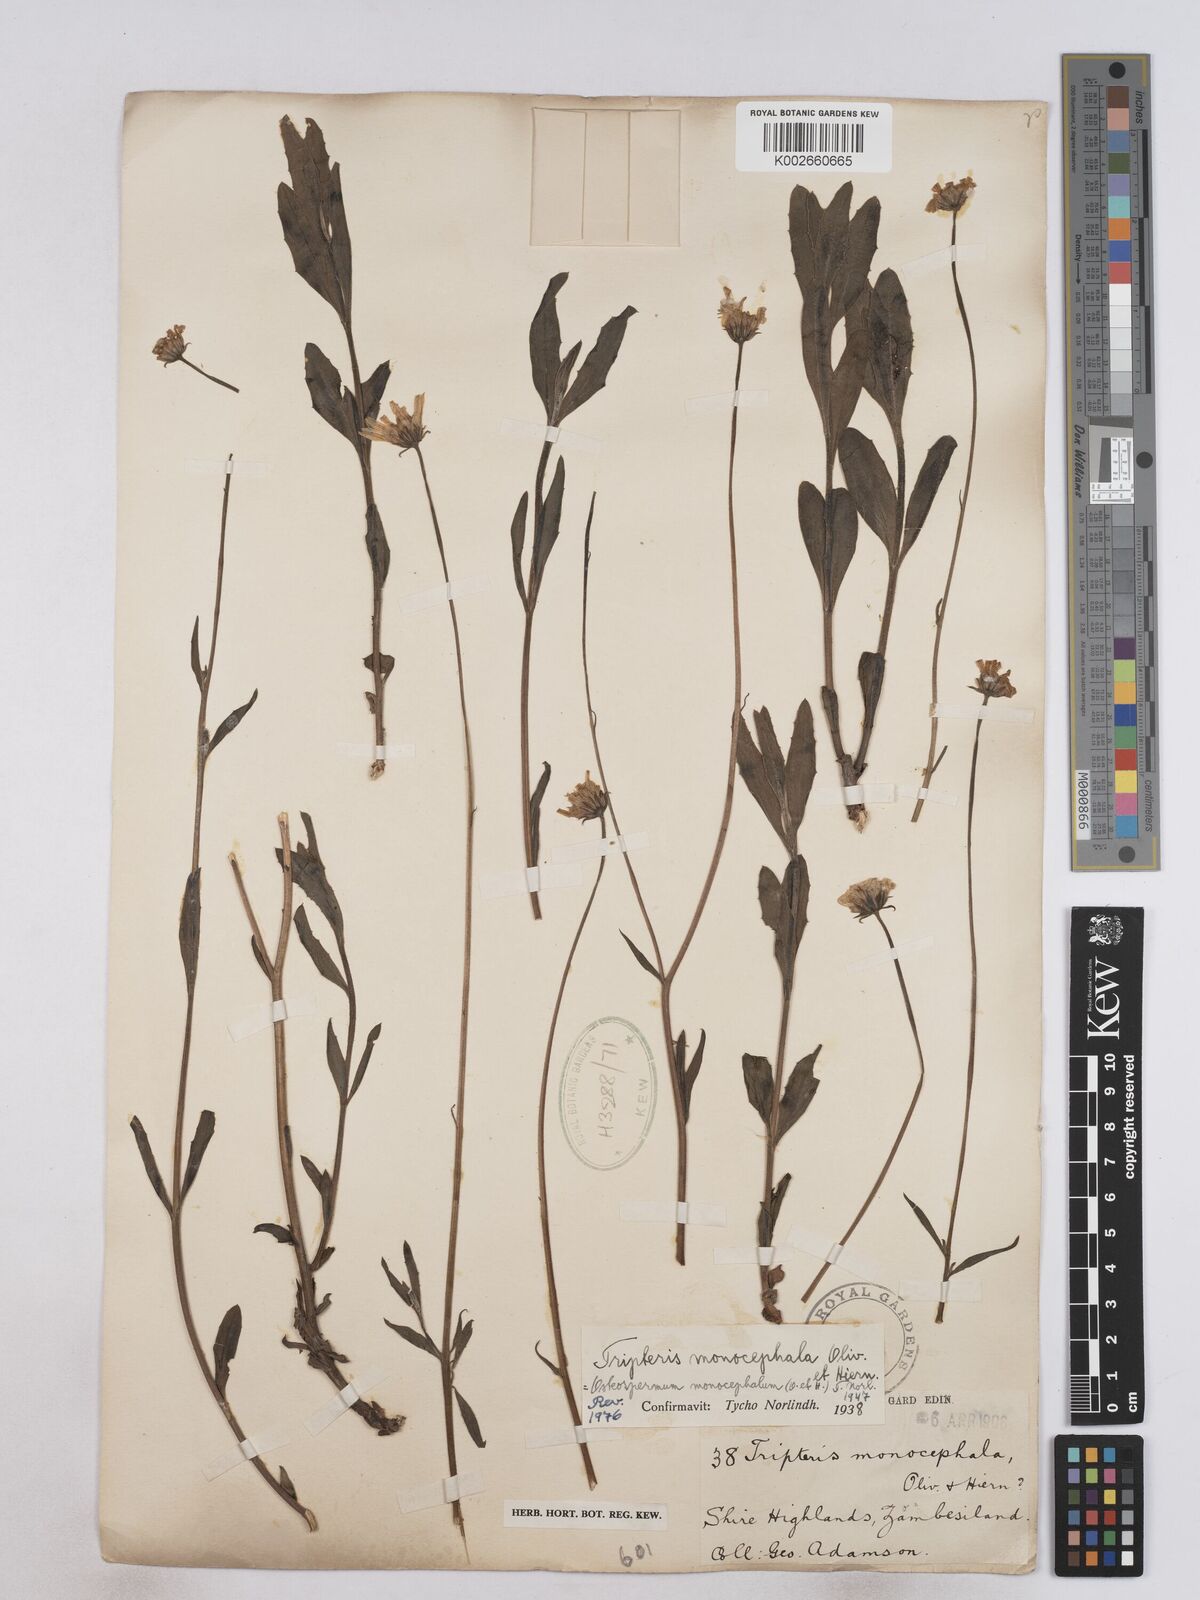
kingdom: Plantae
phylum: Tracheophyta
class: Magnoliopsida
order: Asterales
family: Asteraceae
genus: Osteospermum
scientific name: Osteospermum monocephalum
